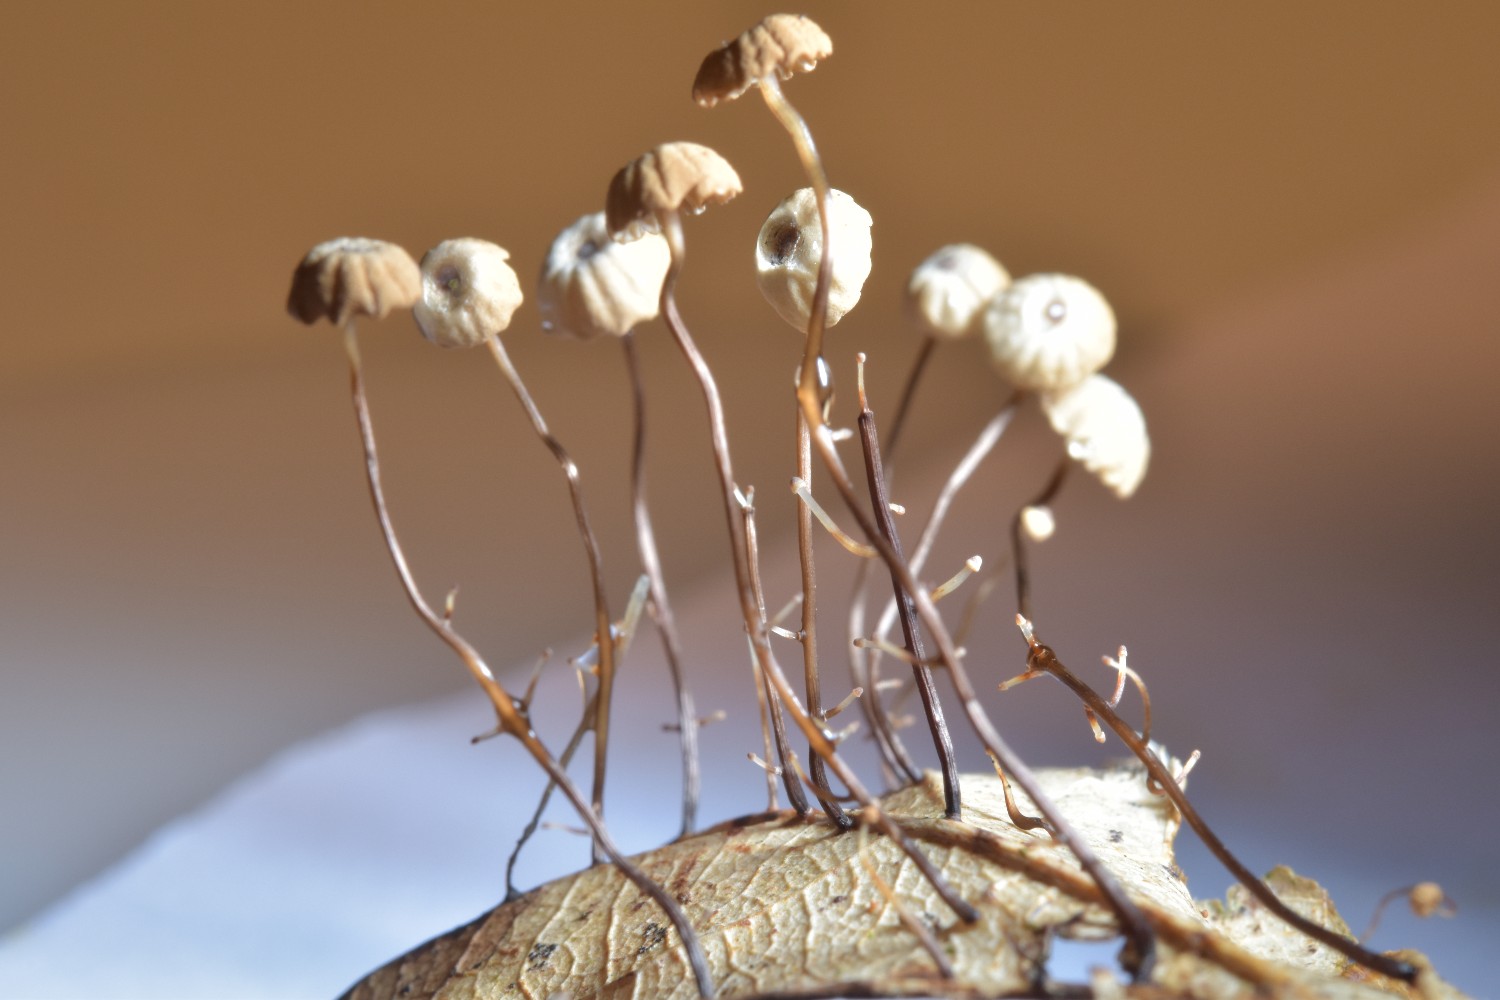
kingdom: Fungi
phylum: Basidiomycota
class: Agaricomycetes
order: Agaricales
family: Marasmiaceae
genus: Marasmius
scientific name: Marasmius bulliardii
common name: furet bruskhat
